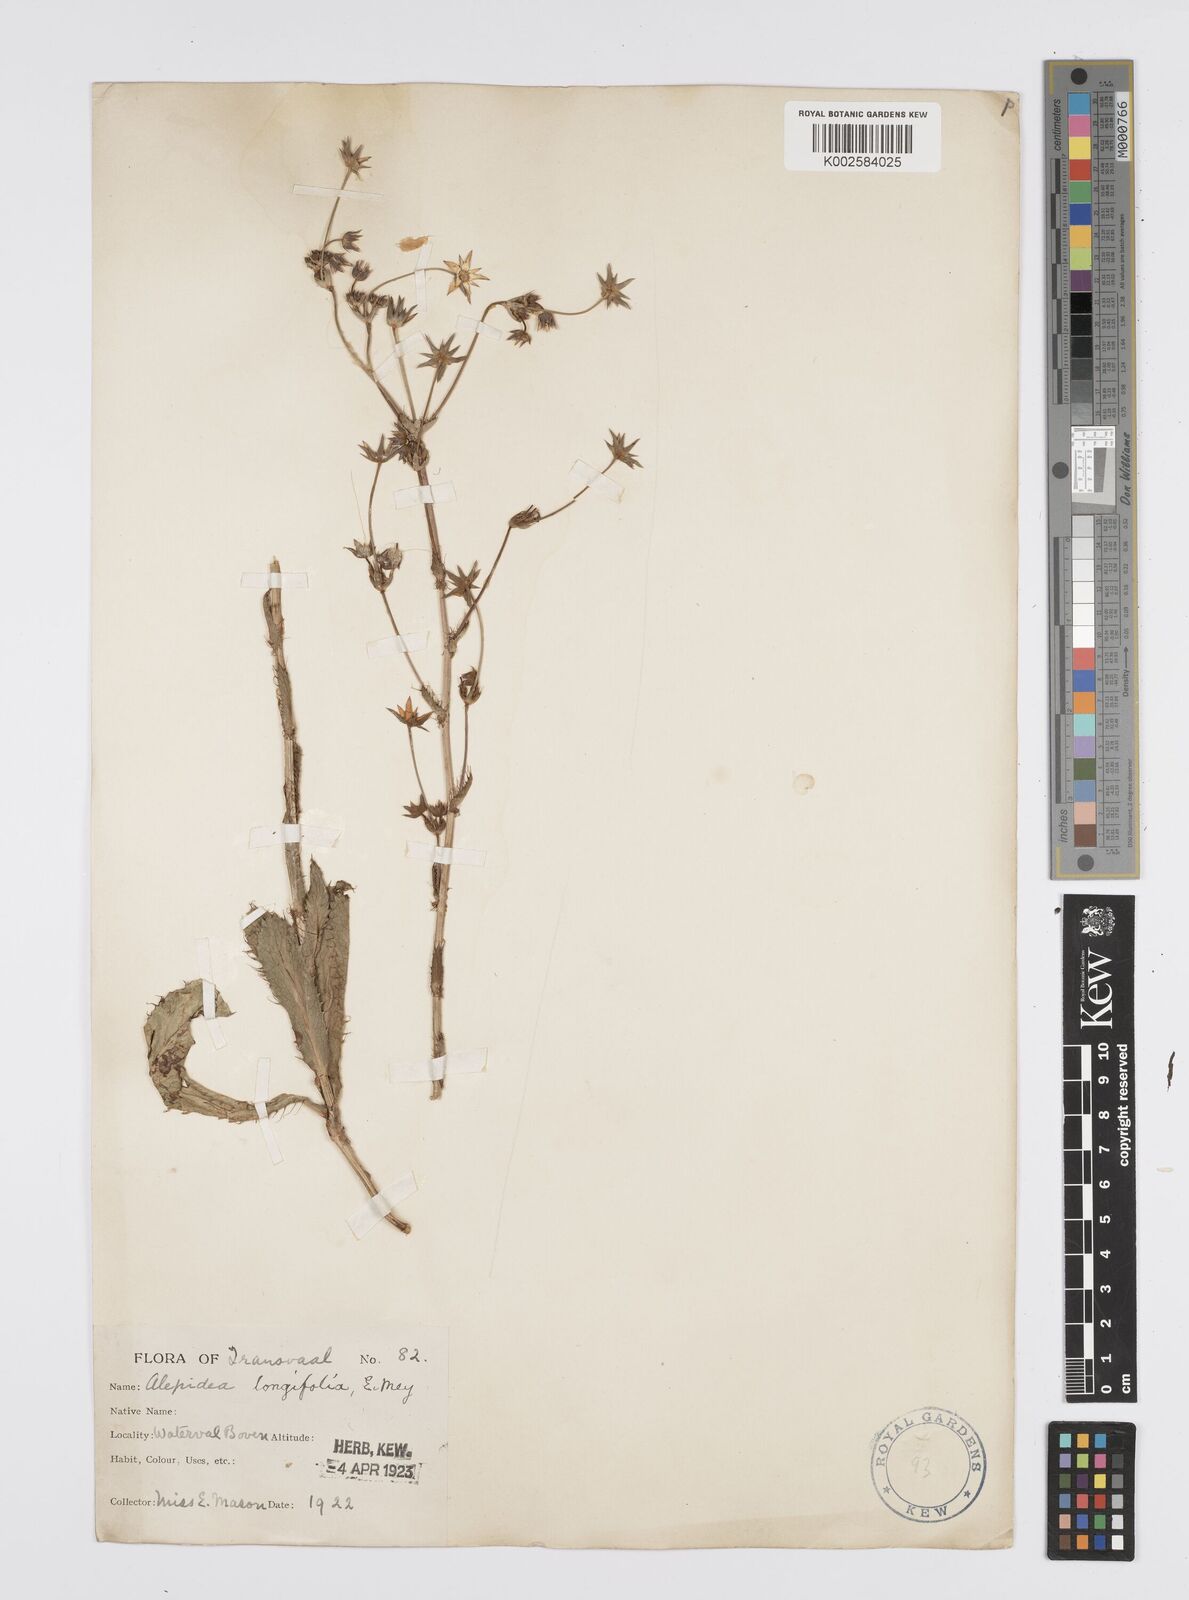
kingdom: Plantae
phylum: Tracheophyta
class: Magnoliopsida
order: Apiales
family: Apiaceae
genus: Alepidea
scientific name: Alepidea
